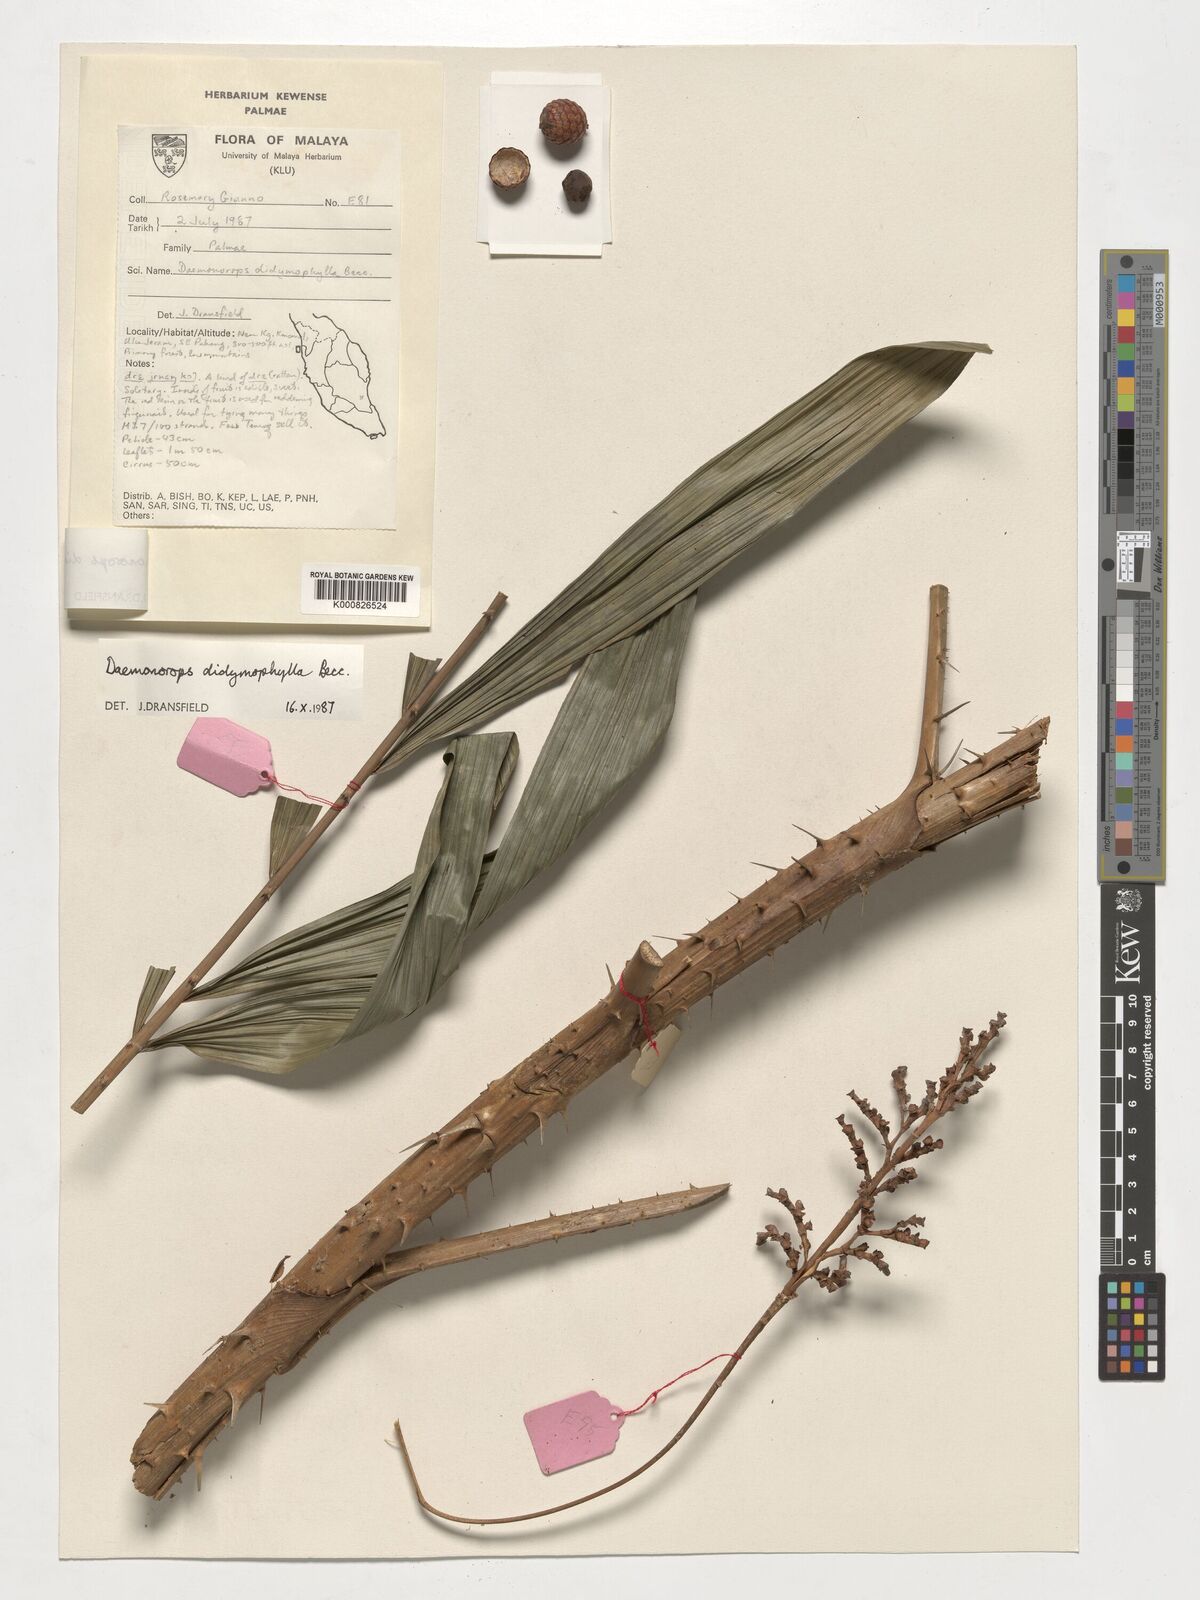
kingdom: Plantae
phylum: Tracheophyta
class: Liliopsida
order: Arecales
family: Arecaceae
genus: Calamus
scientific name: Calamus gracilipes
